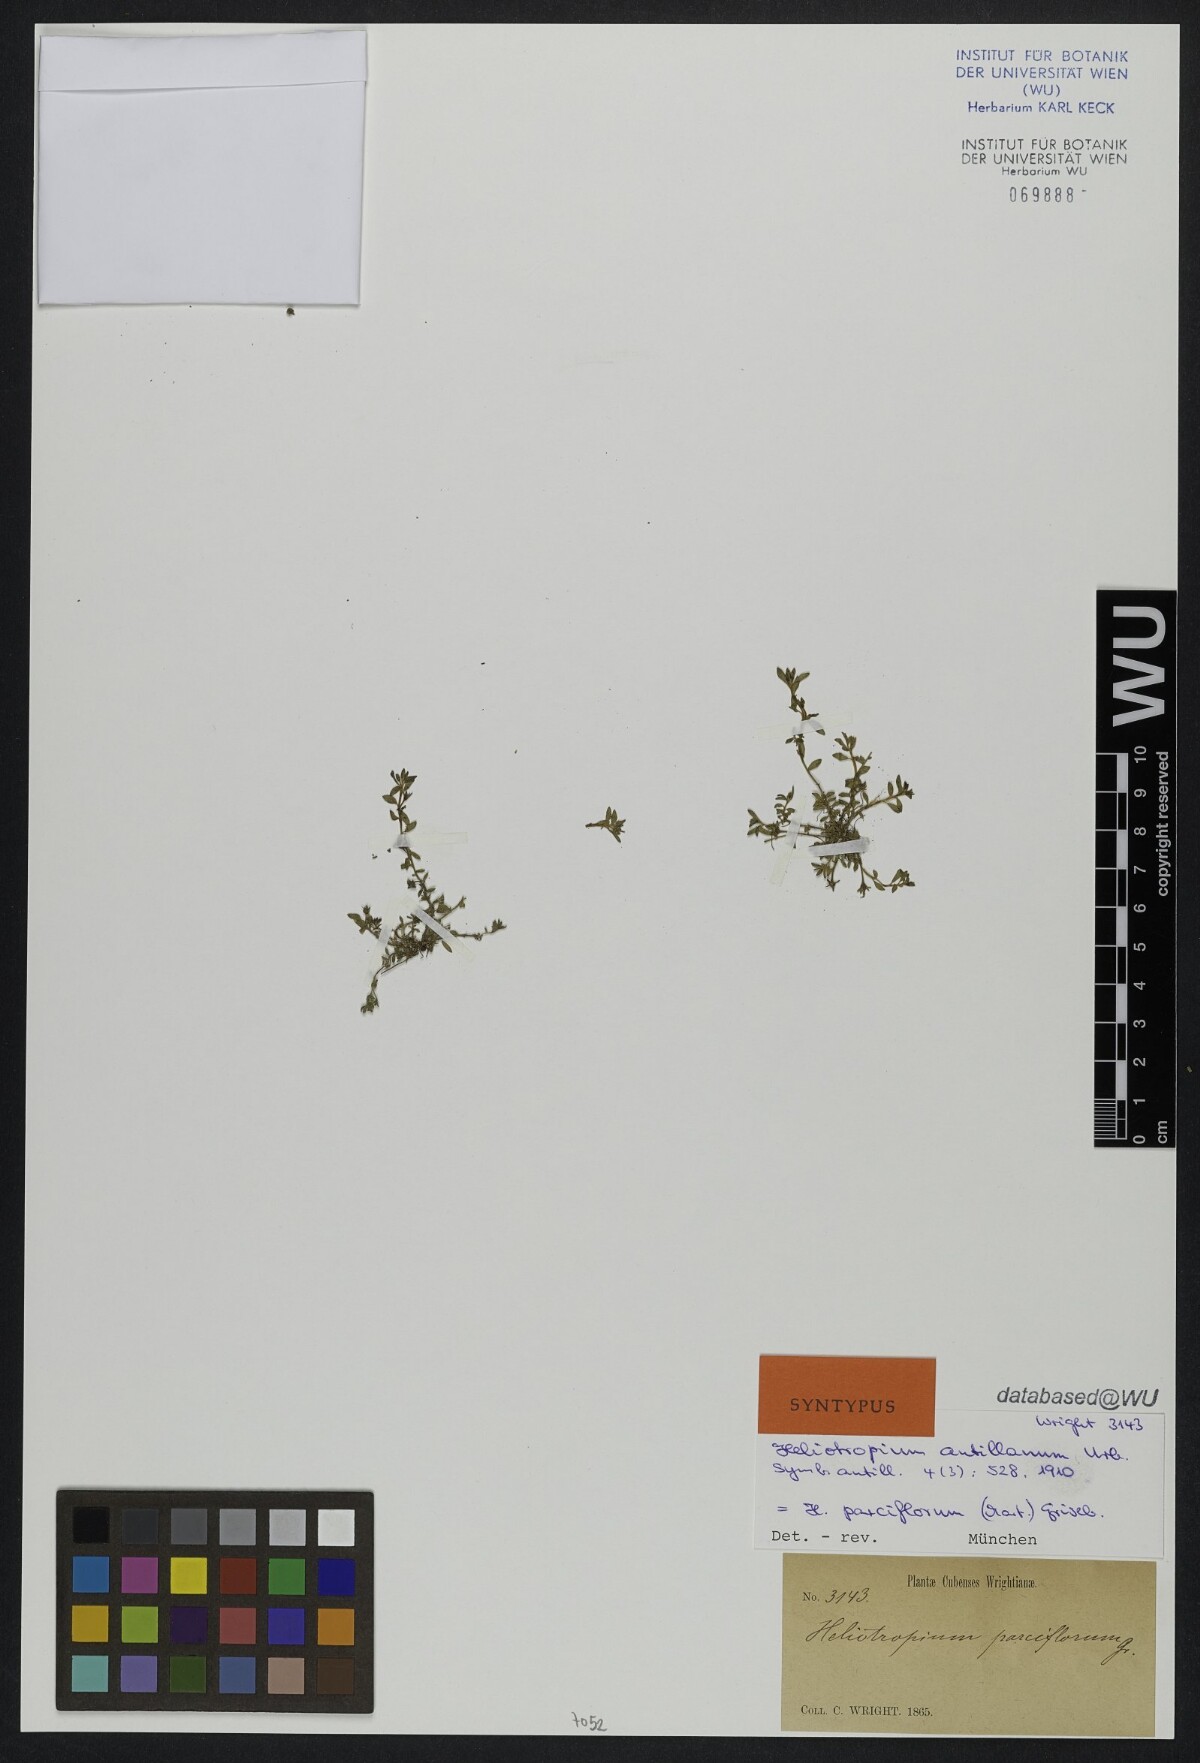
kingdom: Plantae
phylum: Tracheophyta
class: Magnoliopsida
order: Boraginales
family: Heliotropiaceae
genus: Euploca
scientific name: Euploca antillana
